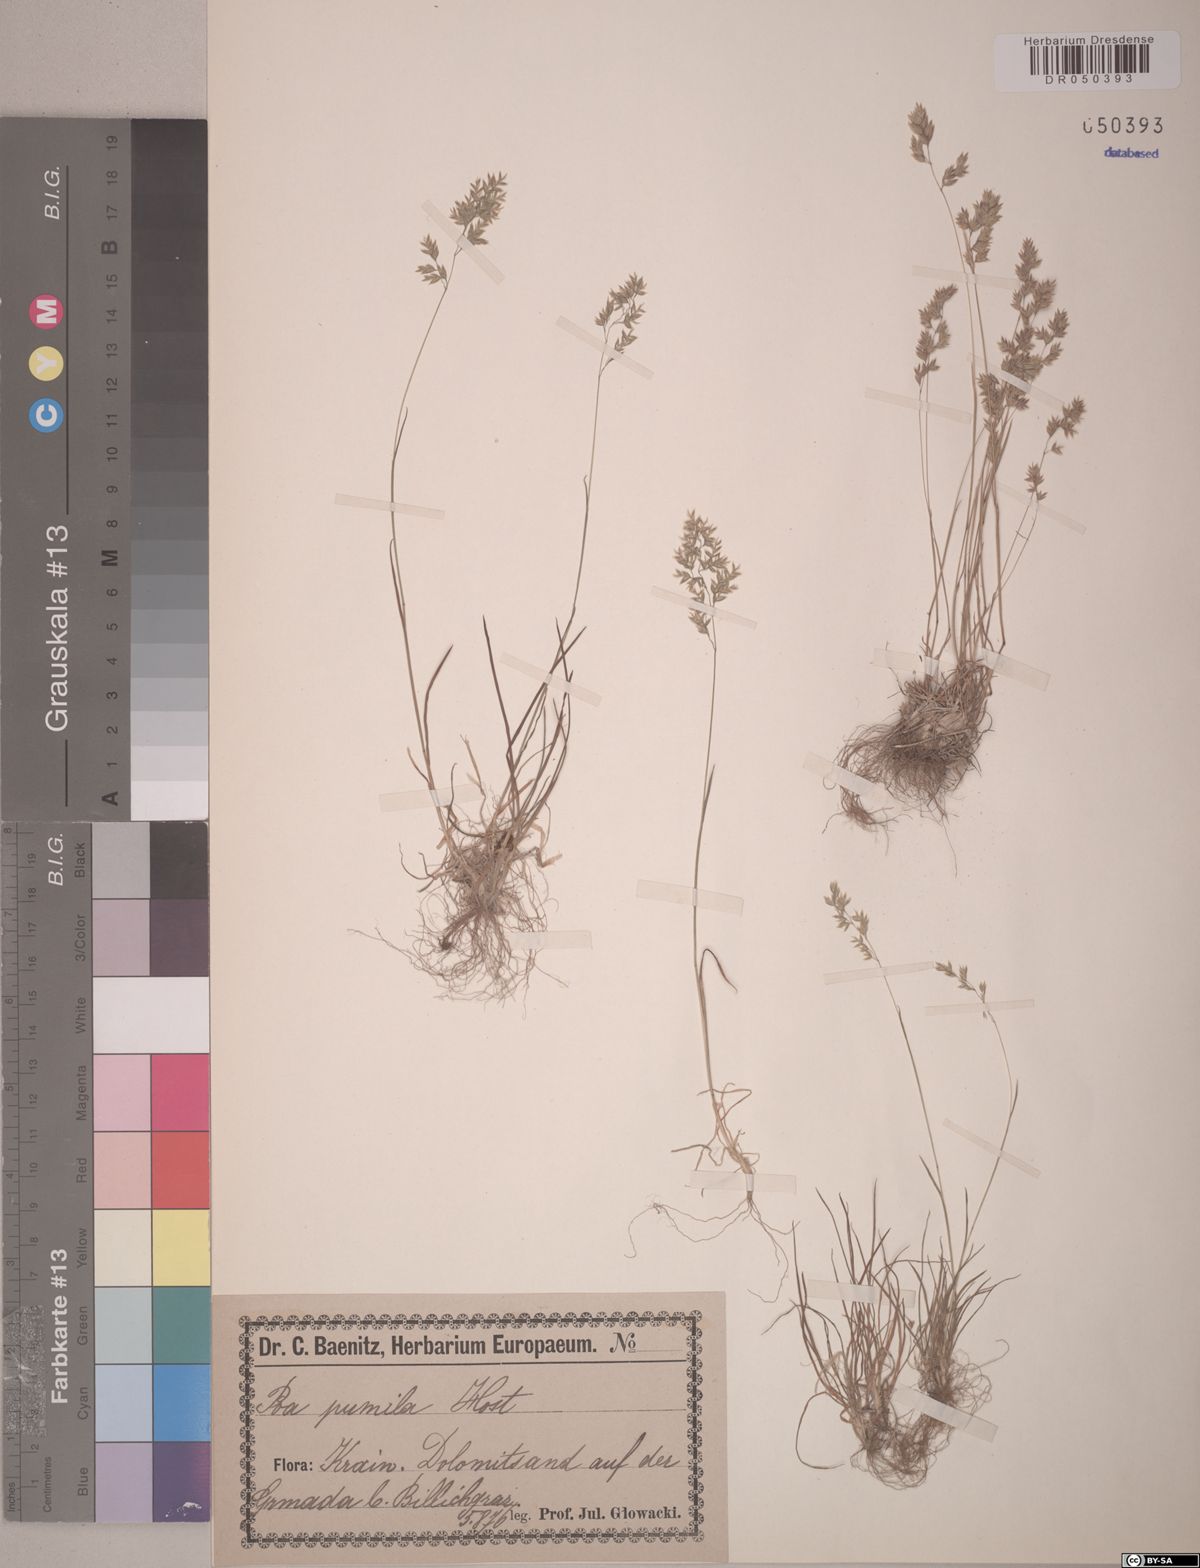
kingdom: Plantae
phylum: Tracheophyta
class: Liliopsida
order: Poales
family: Poaceae
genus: Poa
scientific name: Poa pumila
